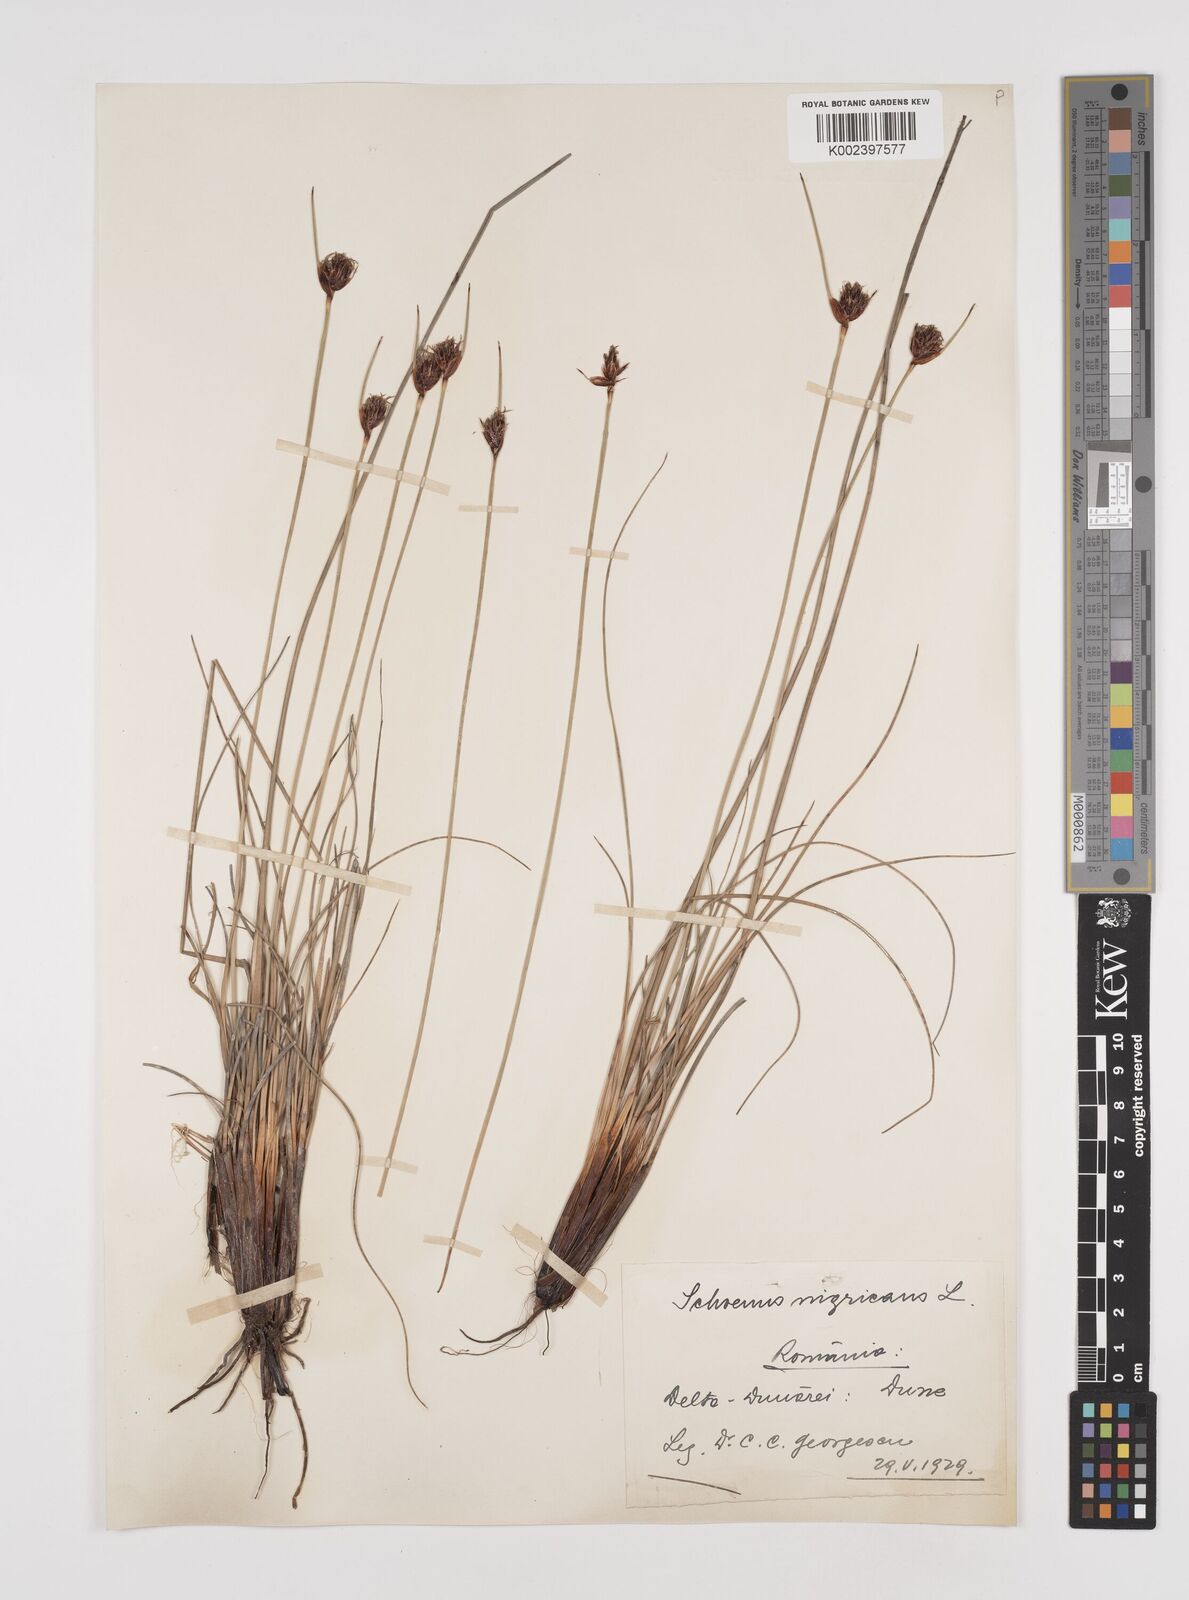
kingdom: Plantae
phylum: Tracheophyta
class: Liliopsida
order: Poales
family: Cyperaceae
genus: Schoenus
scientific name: Schoenus nigricans
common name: Black bog-rush
